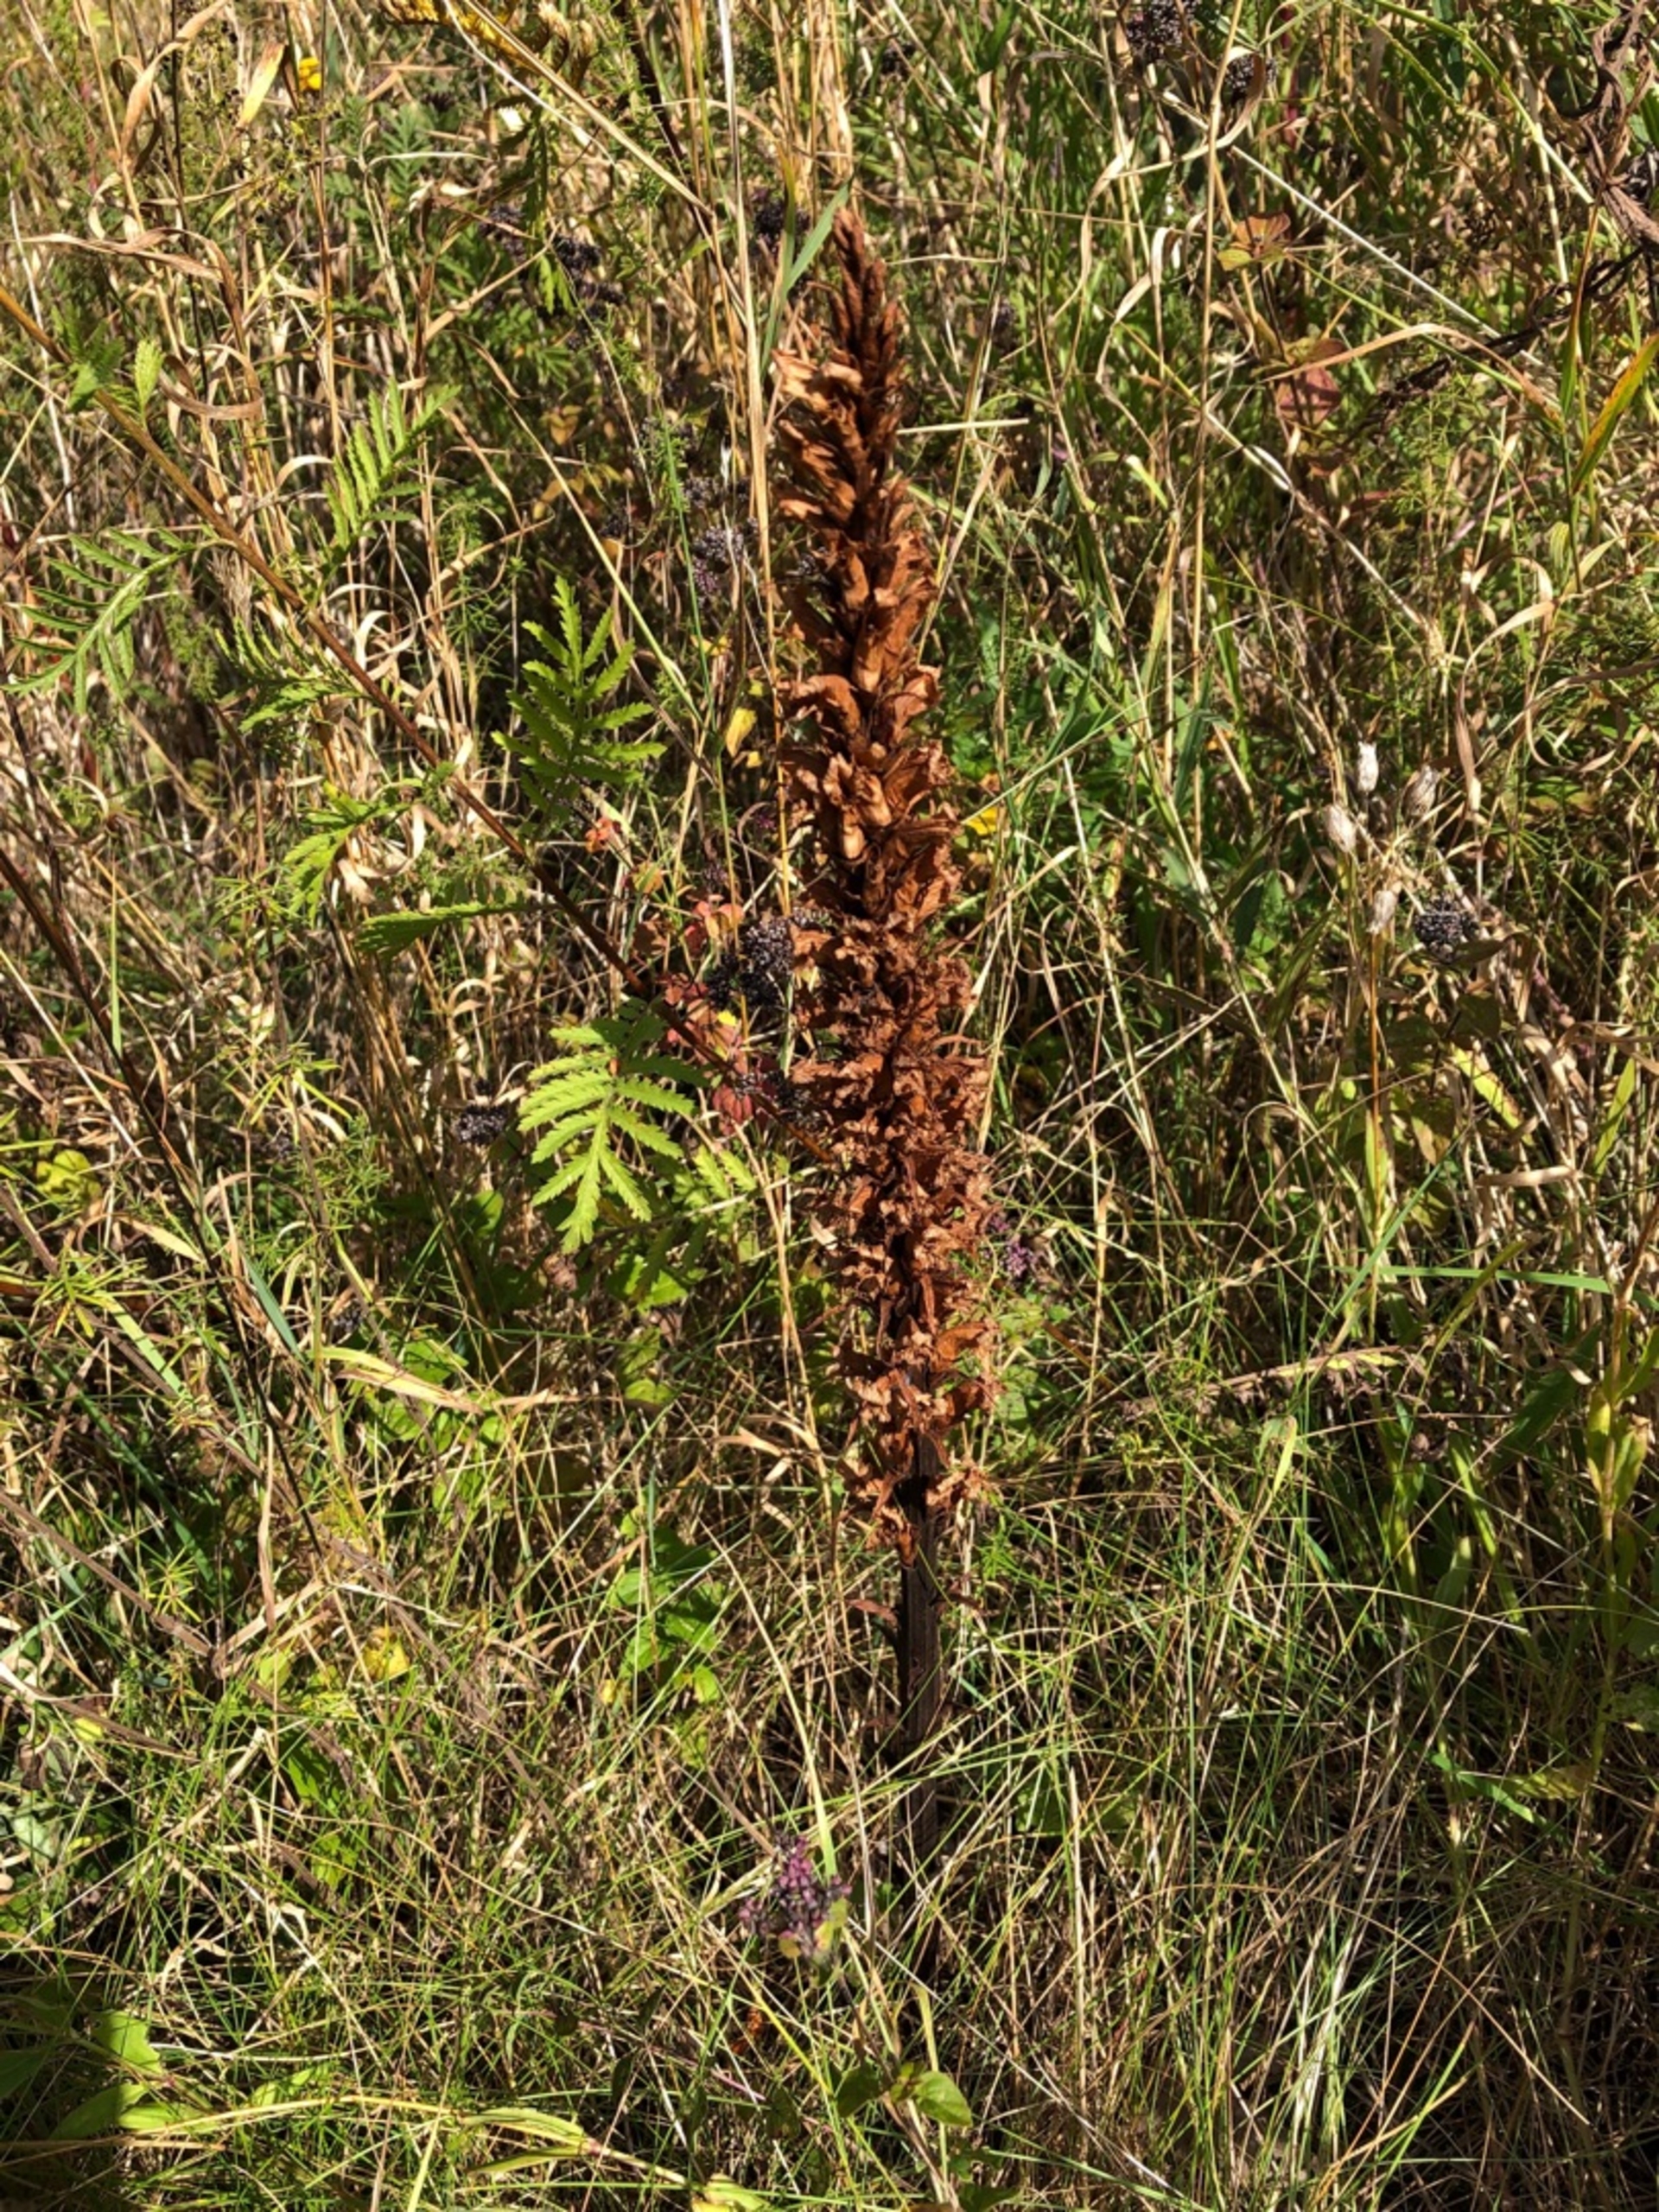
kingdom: Plantae
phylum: Tracheophyta
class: Magnoliopsida
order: Lamiales
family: Orobanchaceae
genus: Orobanche
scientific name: Orobanche elatior
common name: Stor gyvelkvæler
